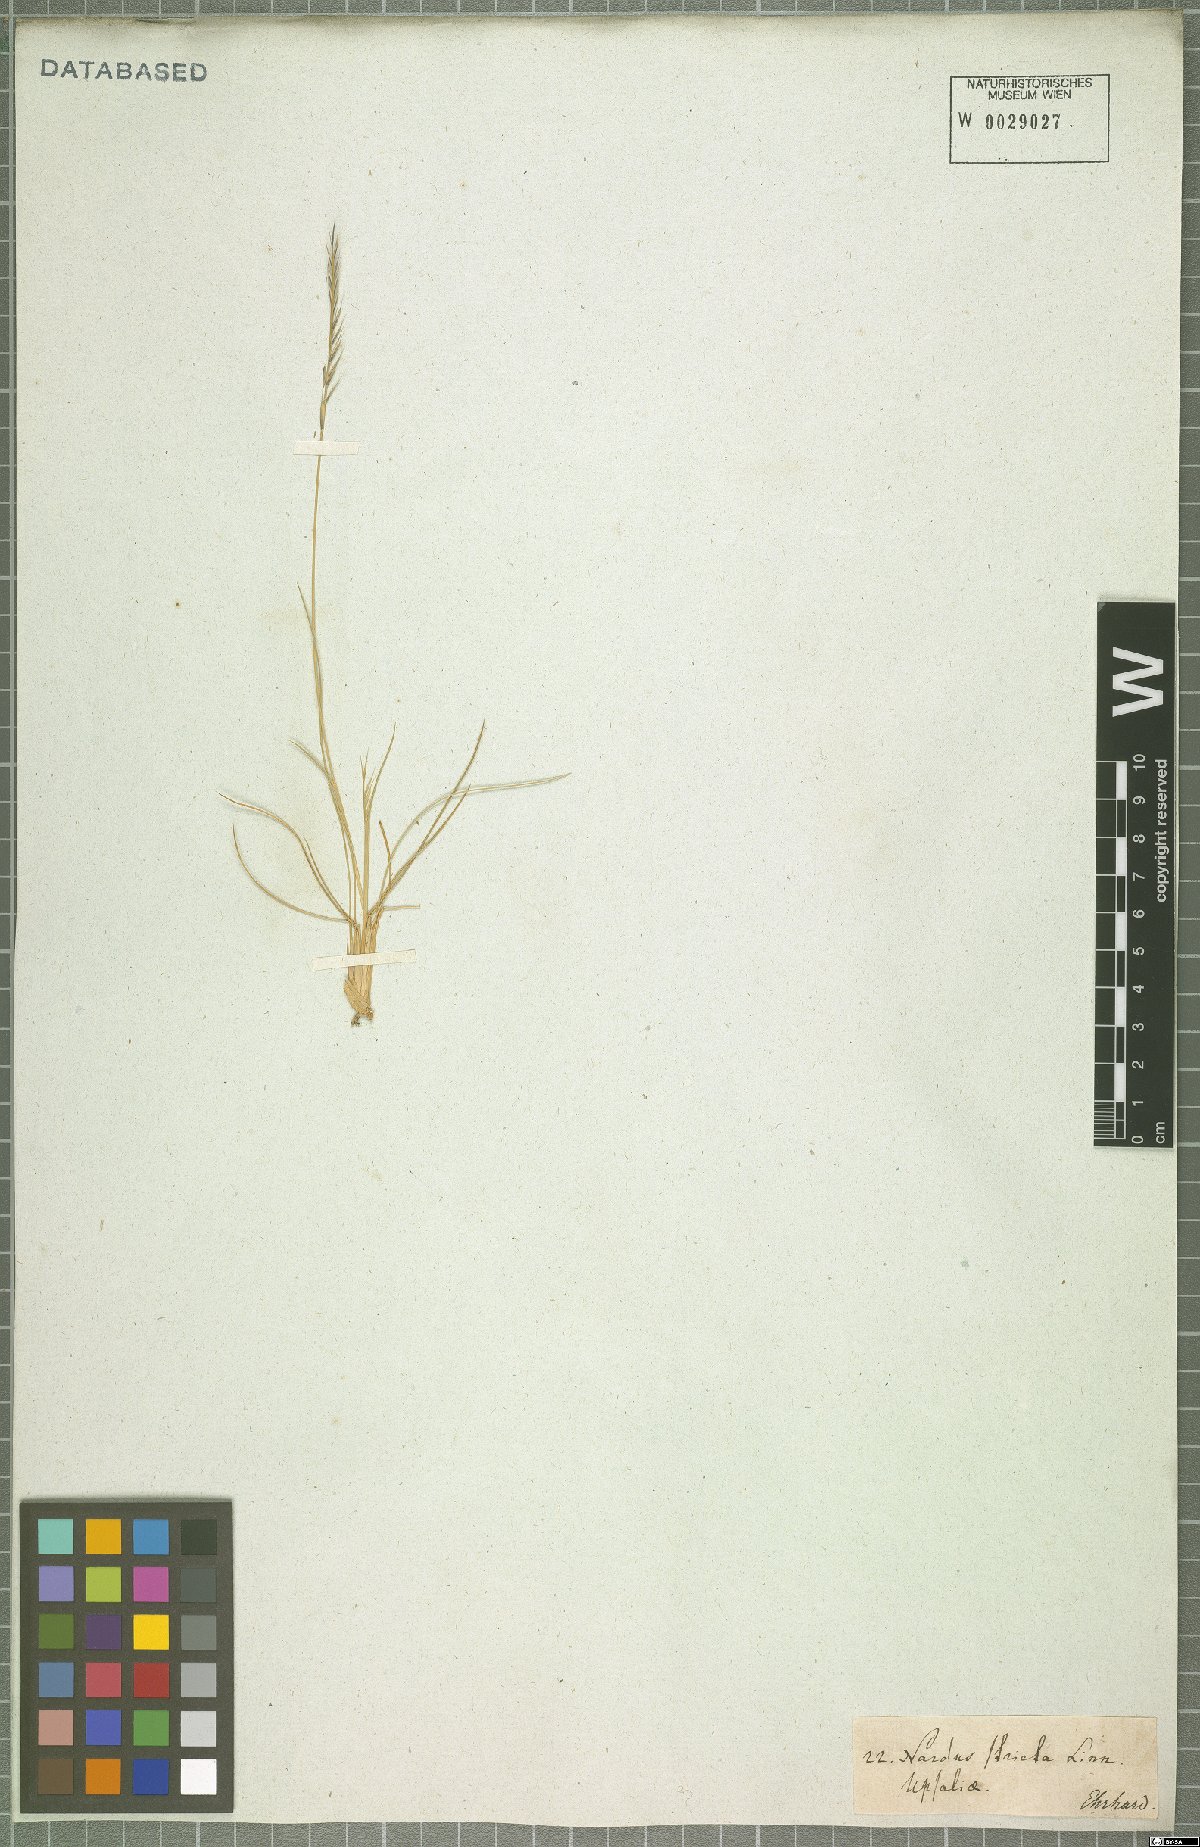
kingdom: Plantae
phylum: Tracheophyta
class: Liliopsida
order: Poales
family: Poaceae
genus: Nardus
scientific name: Nardus stricta
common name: Mat-grass
